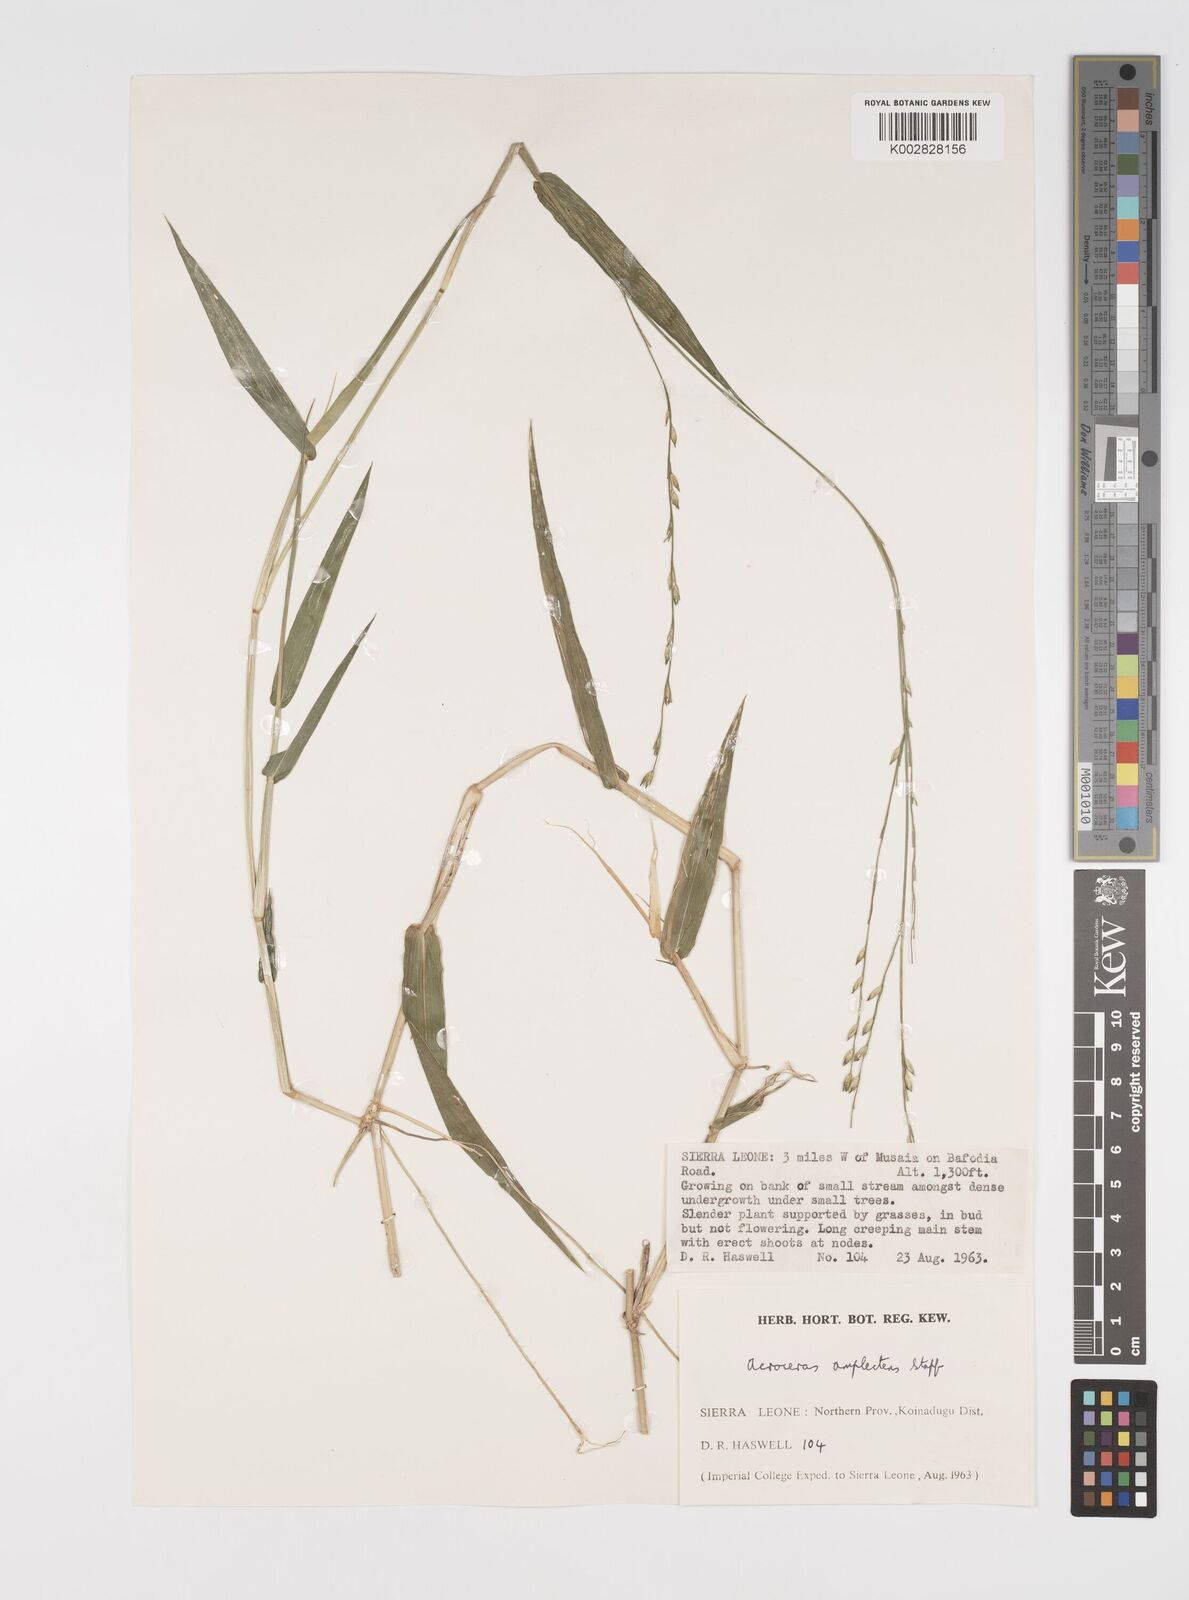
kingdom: Plantae
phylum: Tracheophyta
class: Liliopsida
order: Poales
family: Poaceae
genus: Acroceras
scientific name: Acroceras zizanioides
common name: Oat grass
